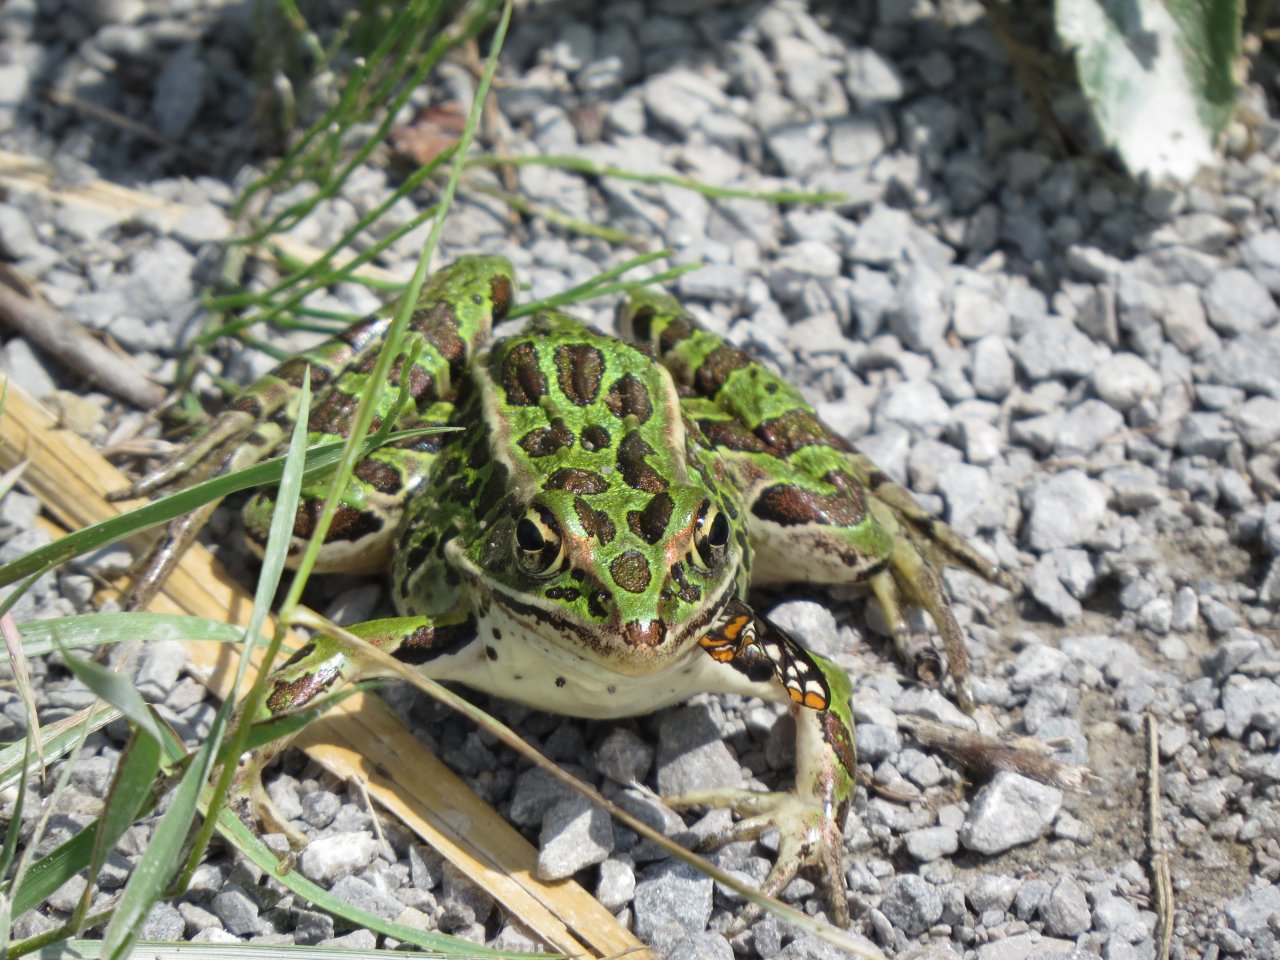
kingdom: Animalia
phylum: Arthropoda
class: Insecta
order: Lepidoptera
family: Nymphalidae
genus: Euphydryas
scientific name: Euphydryas phaeton
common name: Baltimore Checkerspot
